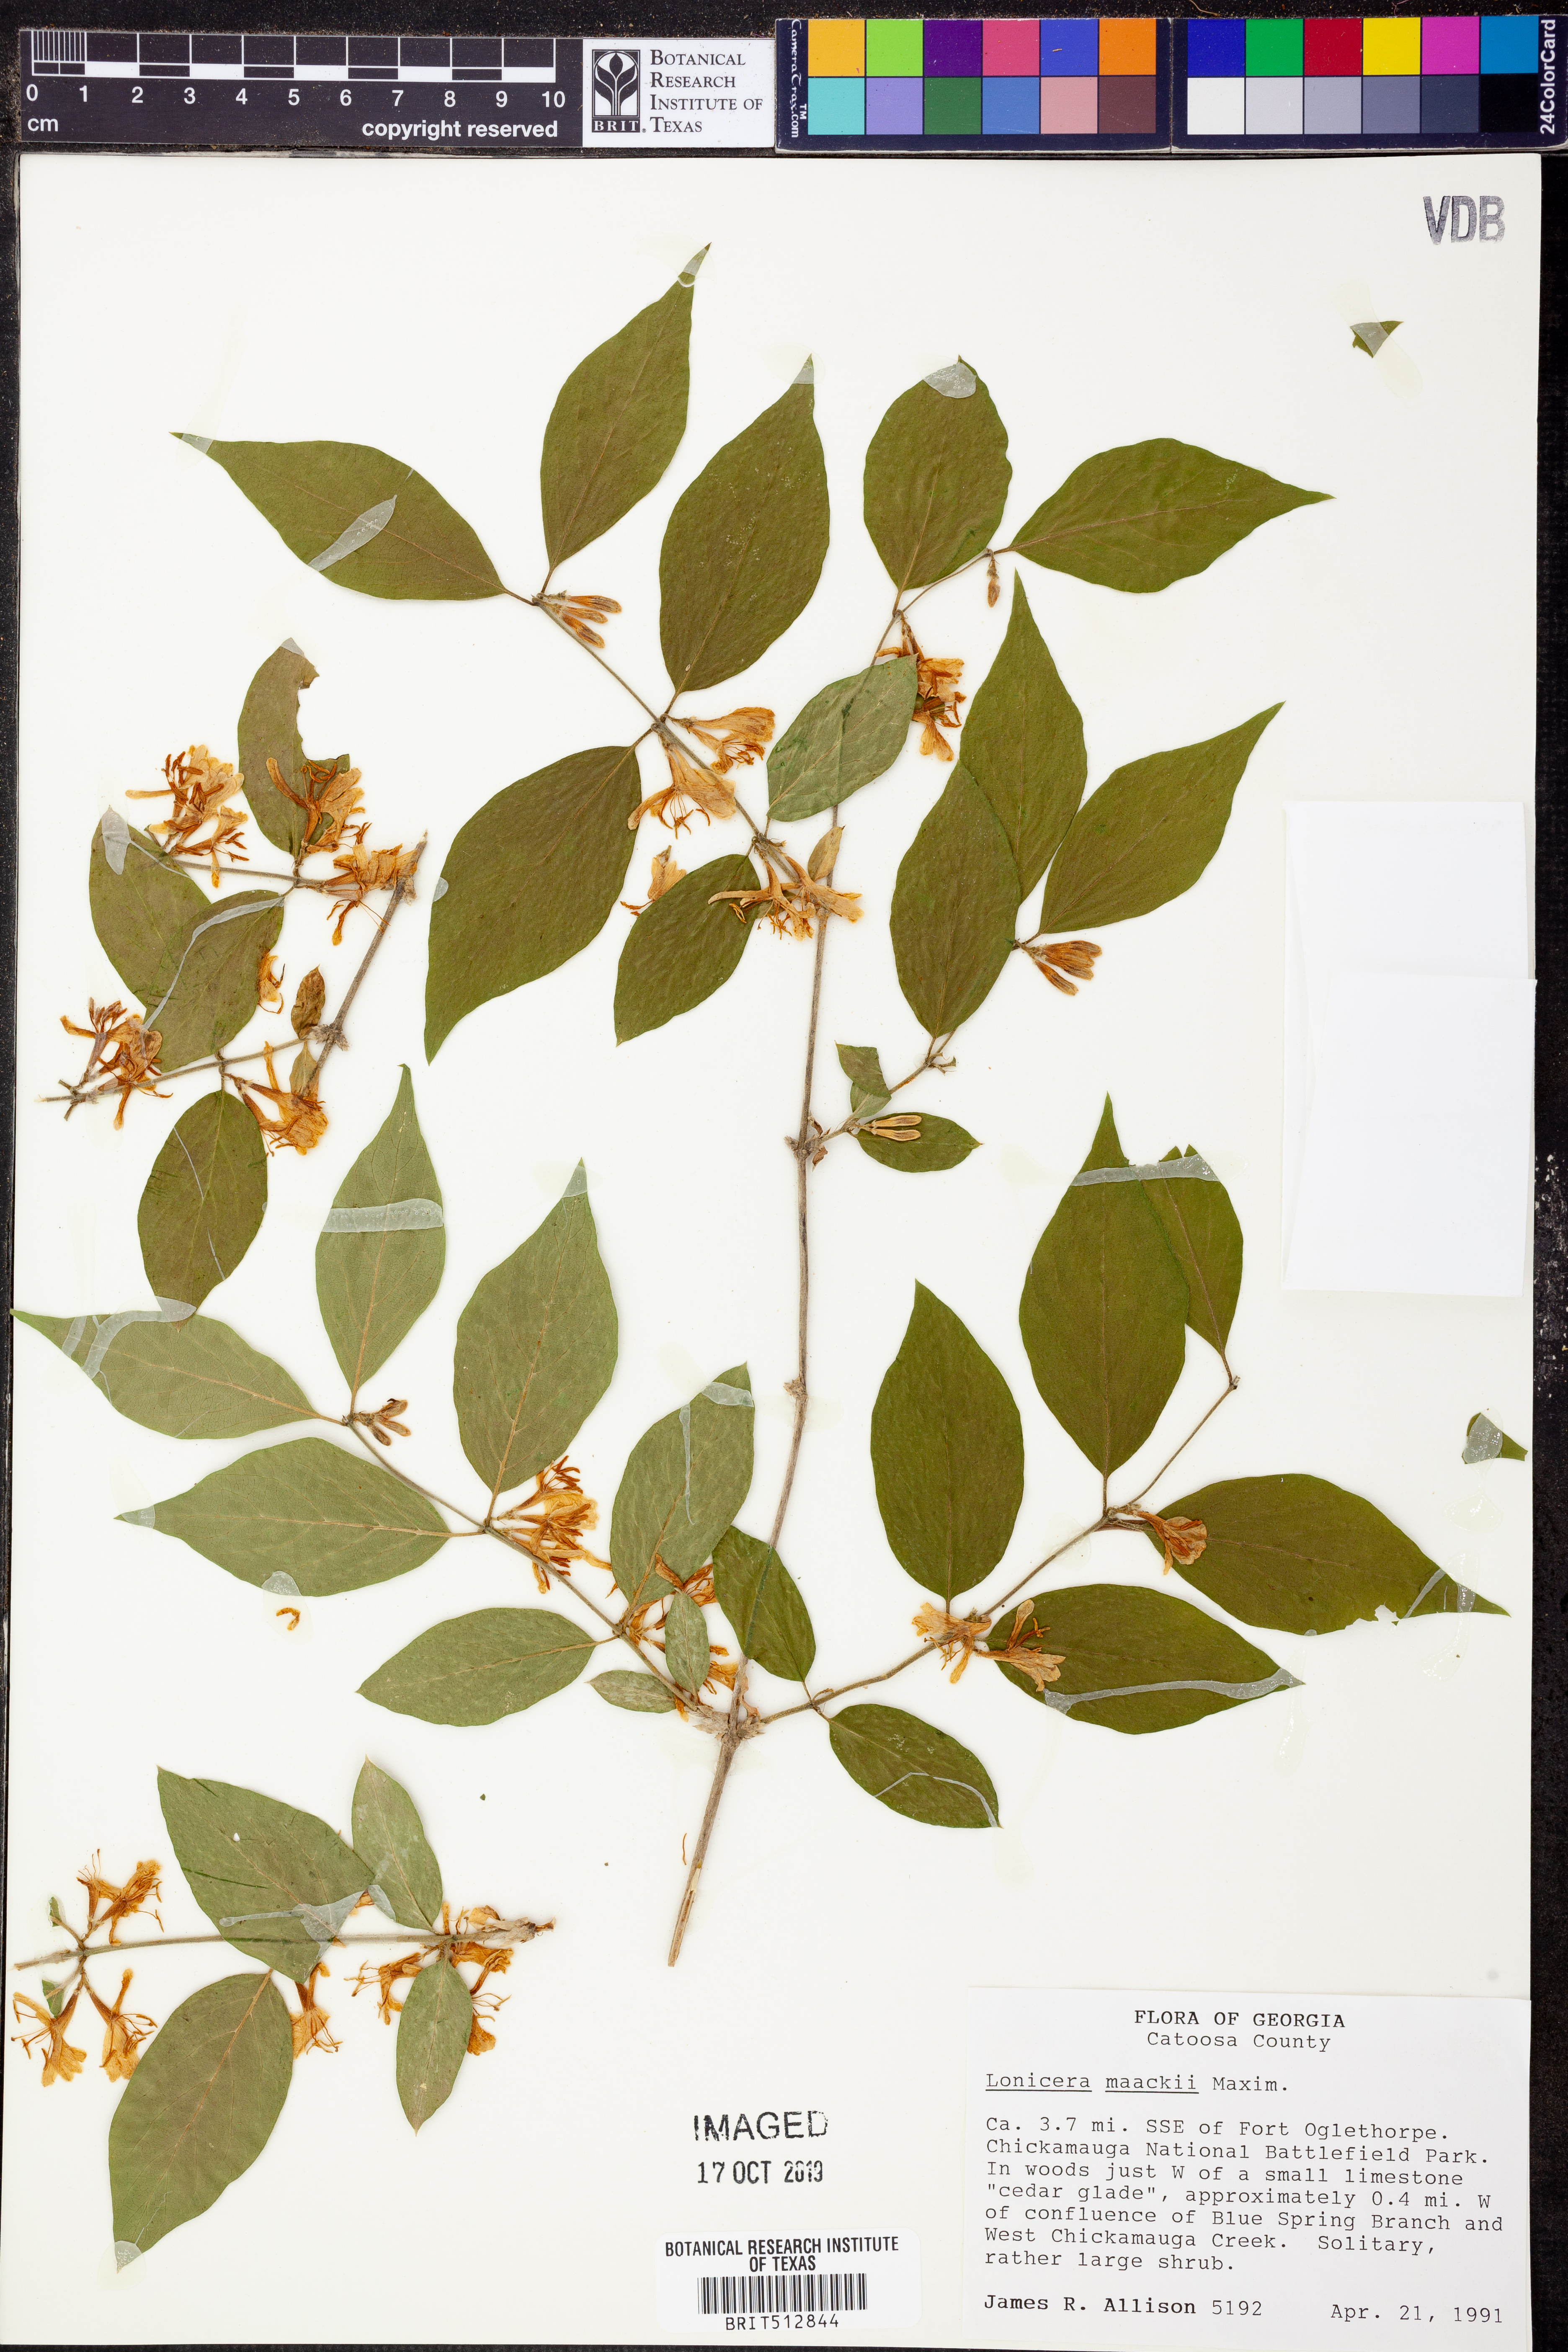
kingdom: Plantae
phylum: Tracheophyta
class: Magnoliopsida
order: Dipsacales
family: Caprifoliaceae
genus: Lonicera
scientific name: Lonicera maackii
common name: Amur honeysuckle
